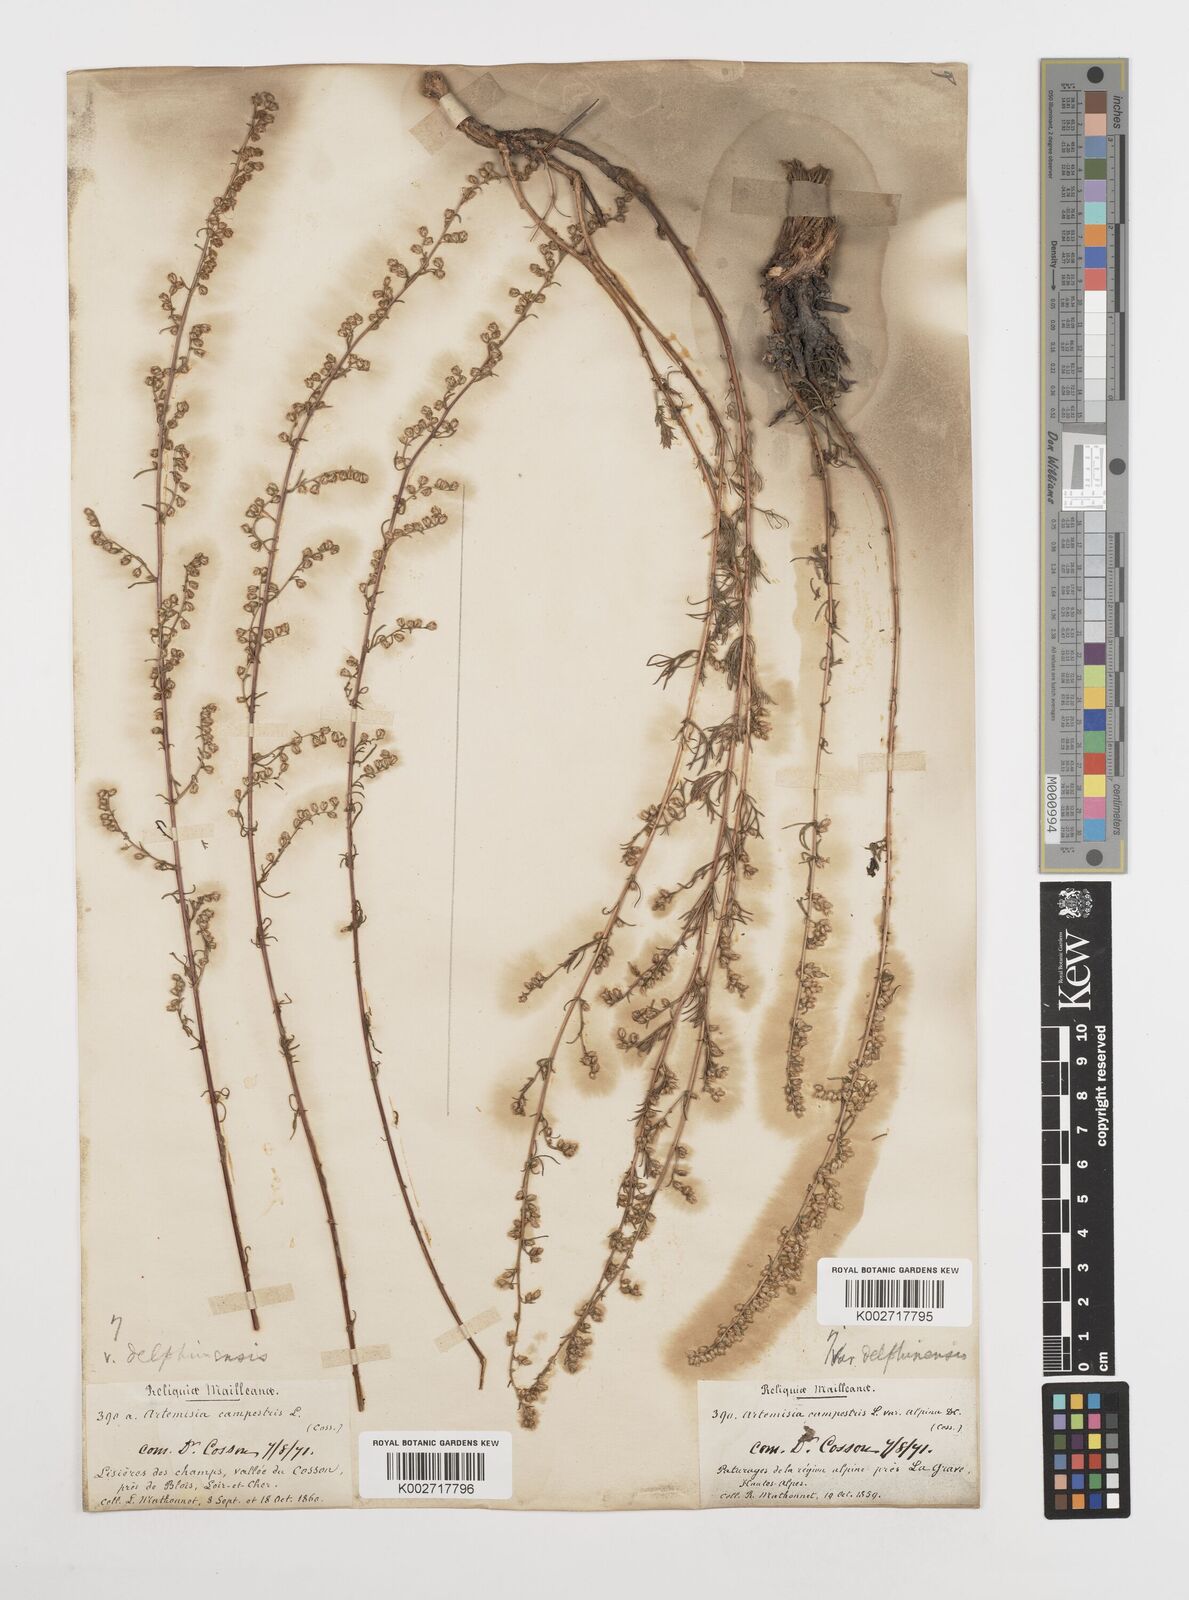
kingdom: Plantae
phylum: Tracheophyta
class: Magnoliopsida
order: Asterales
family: Asteraceae
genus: Artemisia
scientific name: Artemisia campestris
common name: Field wormwood
